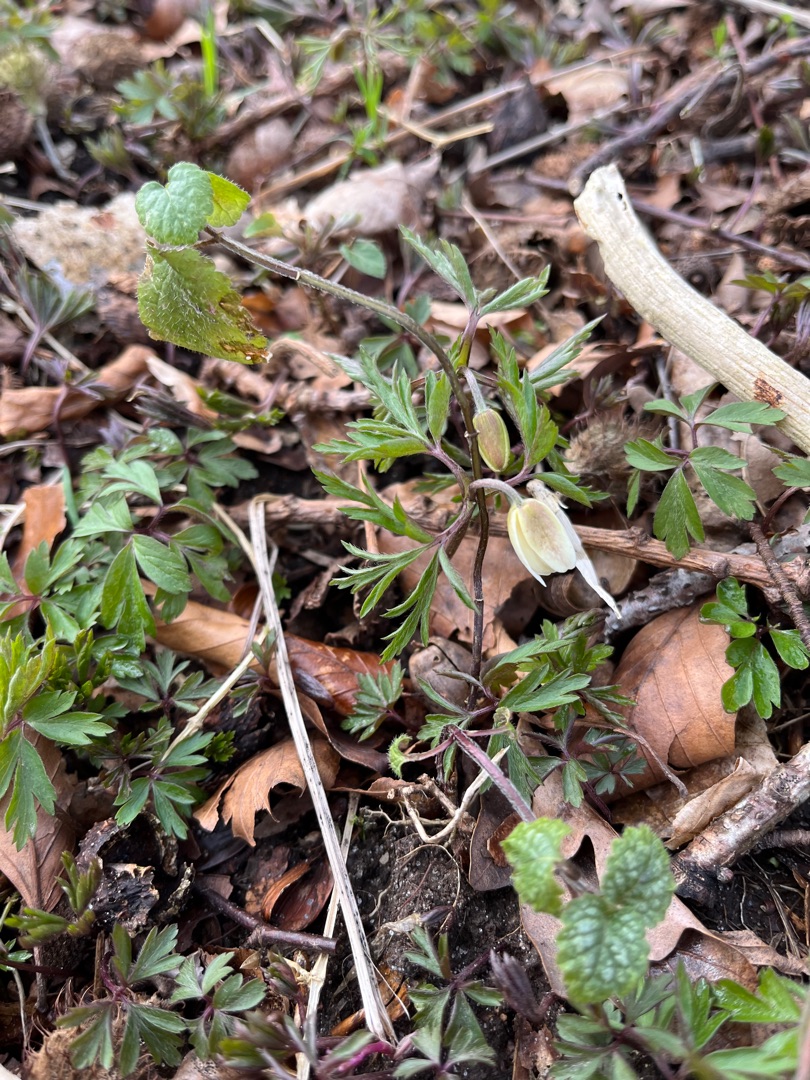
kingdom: Plantae
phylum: Tracheophyta
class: Magnoliopsida
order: Ranunculales
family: Ranunculaceae
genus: Anemone
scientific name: Anemone nemorosa
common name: Hvid anemone
